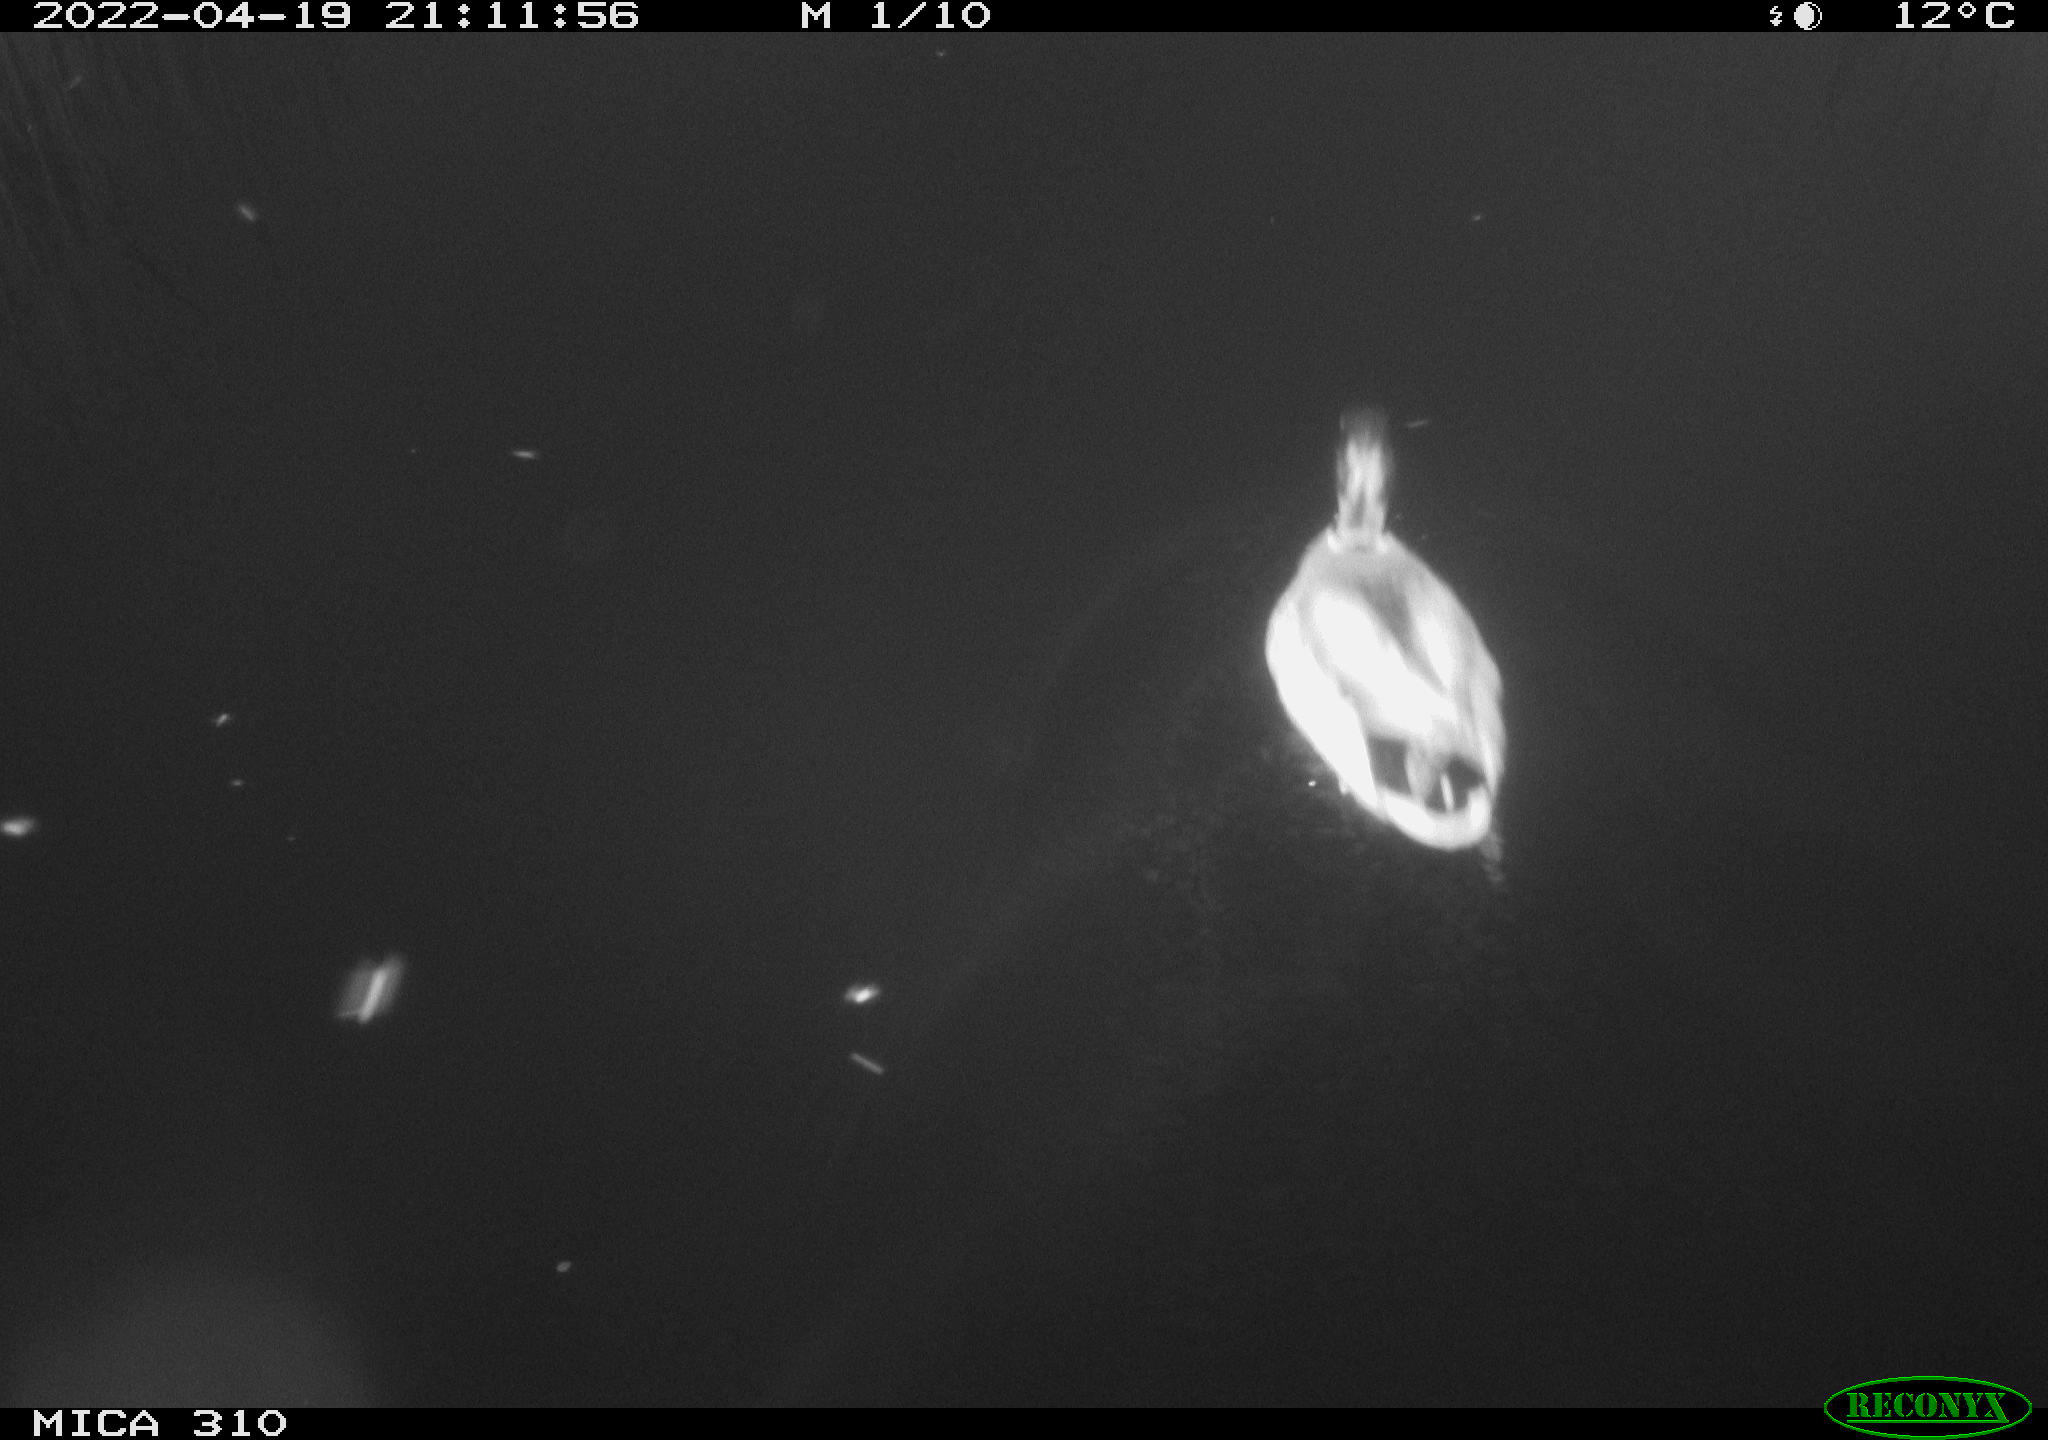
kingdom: Animalia
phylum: Chordata
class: Aves
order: Anseriformes
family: Anatidae
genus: Anas
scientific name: Anas platyrhynchos
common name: Mallard
